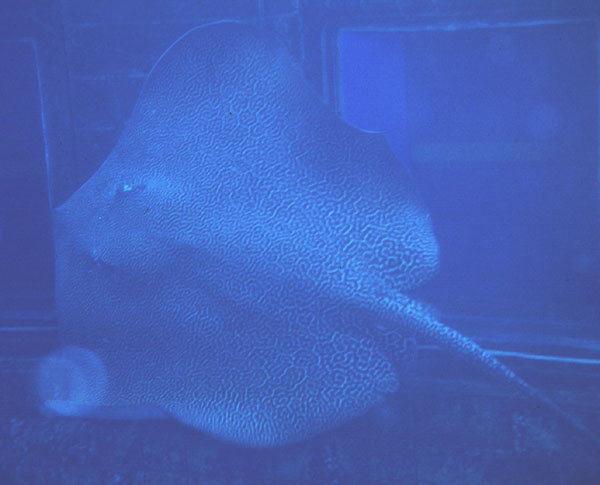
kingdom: Animalia
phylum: Chordata
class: Elasmobranchii
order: Myliobatiformes
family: Dasyatidae
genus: Himantura
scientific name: Himantura uarnak
